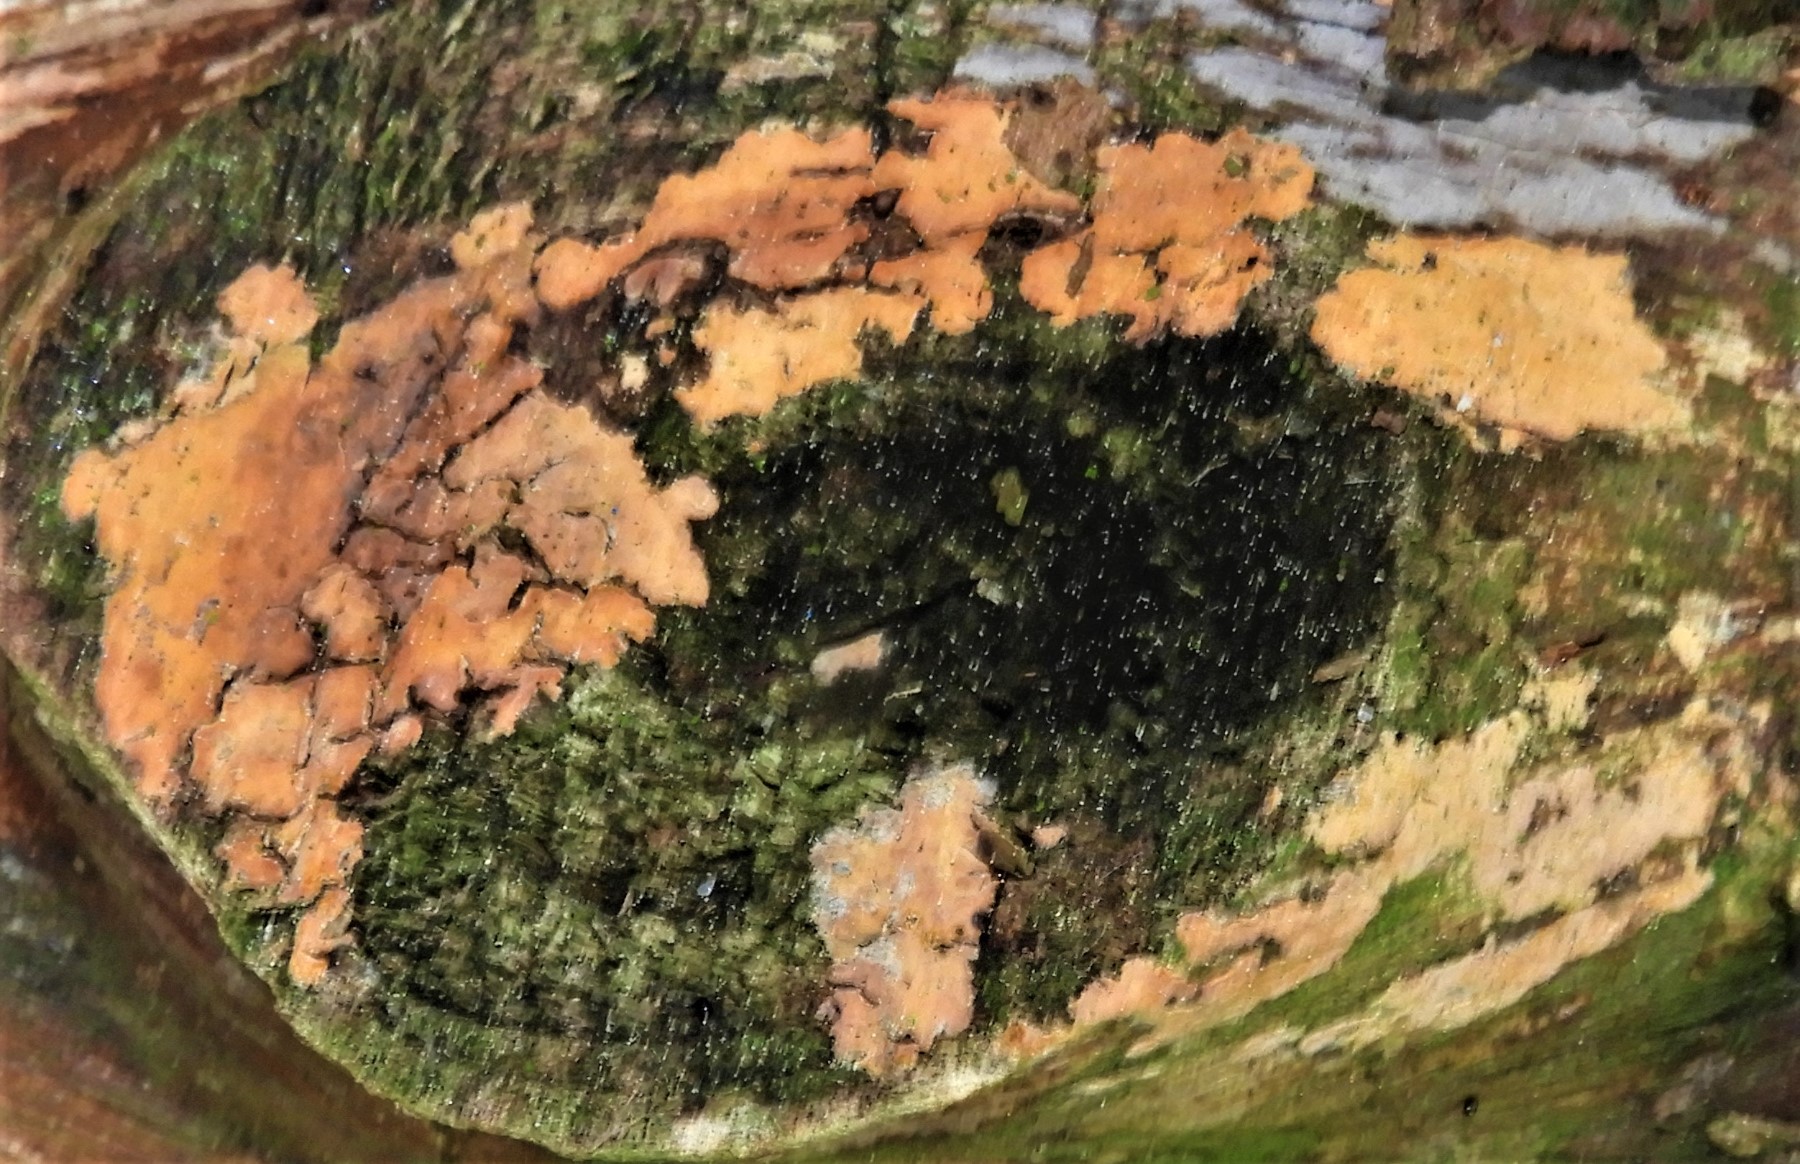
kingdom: Fungi
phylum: Basidiomycota
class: Agaricomycetes
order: Russulales
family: Peniophoraceae
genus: Peniophora
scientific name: Peniophora incarnata
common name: laksefarvet voksskind
